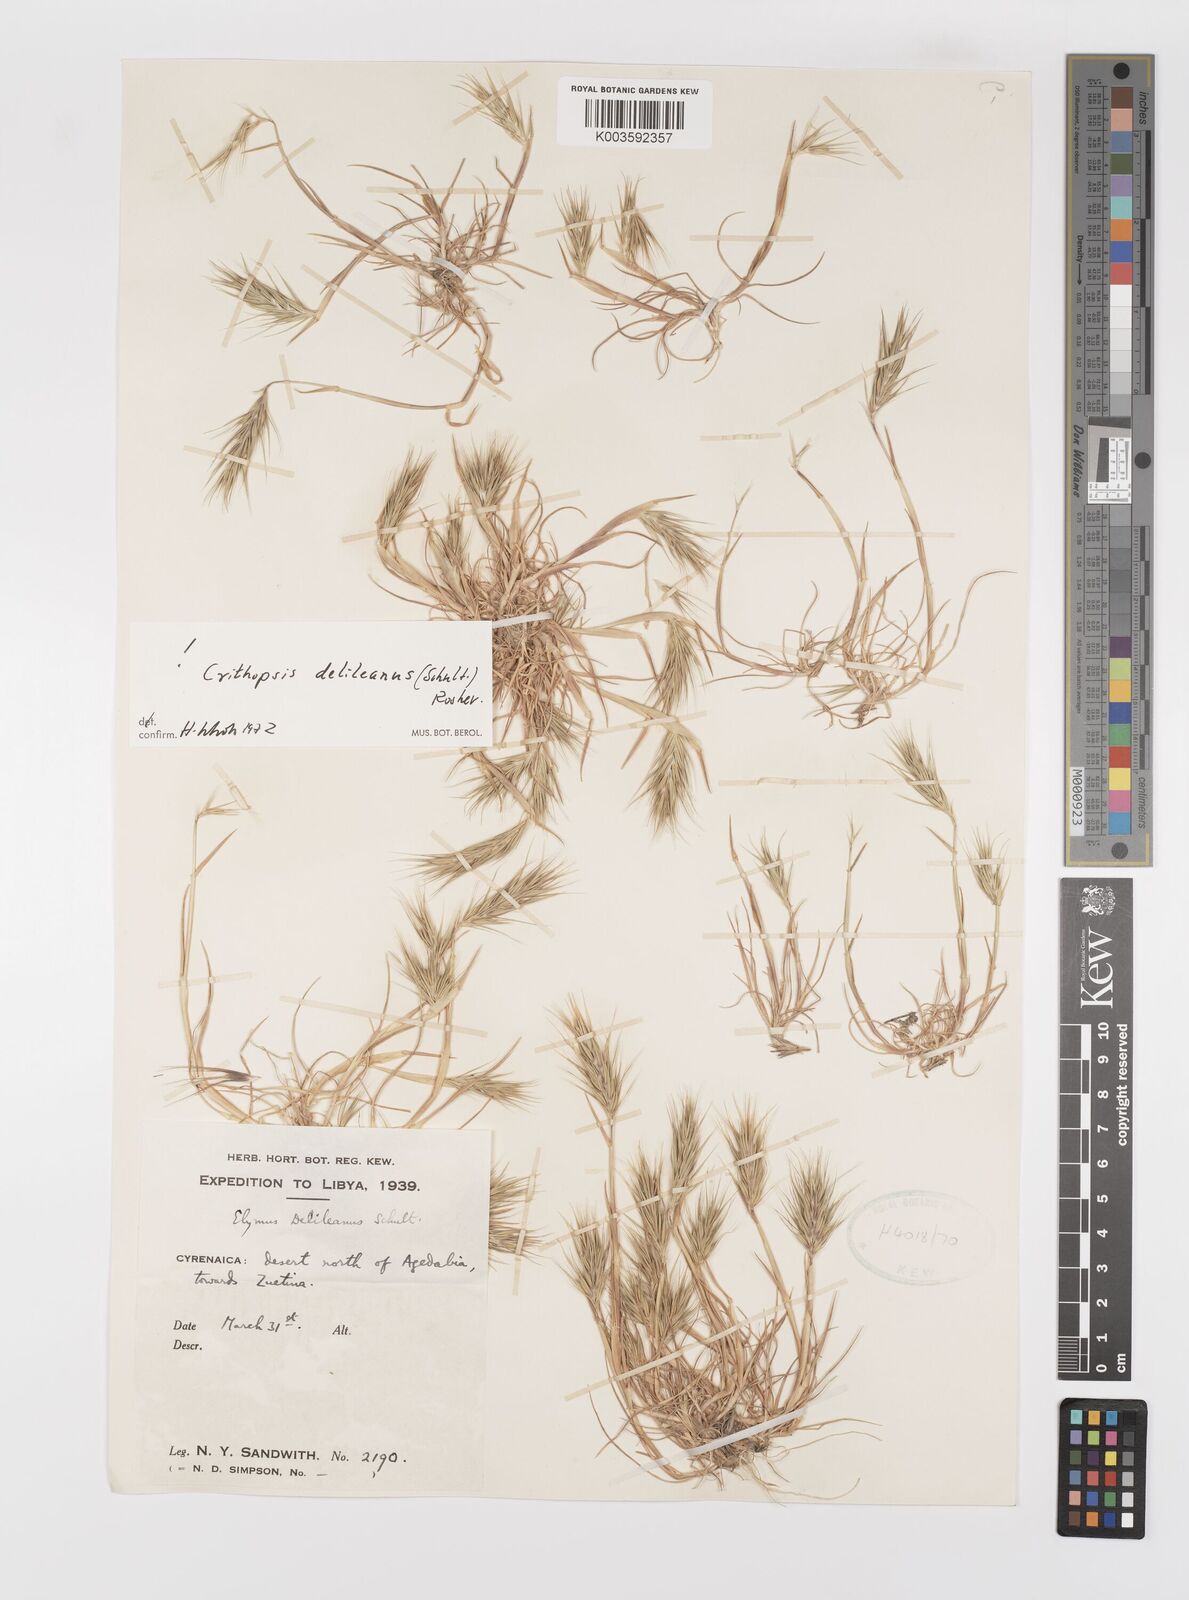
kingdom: Plantae
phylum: Tracheophyta
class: Liliopsida
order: Poales
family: Poaceae
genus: Crithopsis
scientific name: Crithopsis delileana
